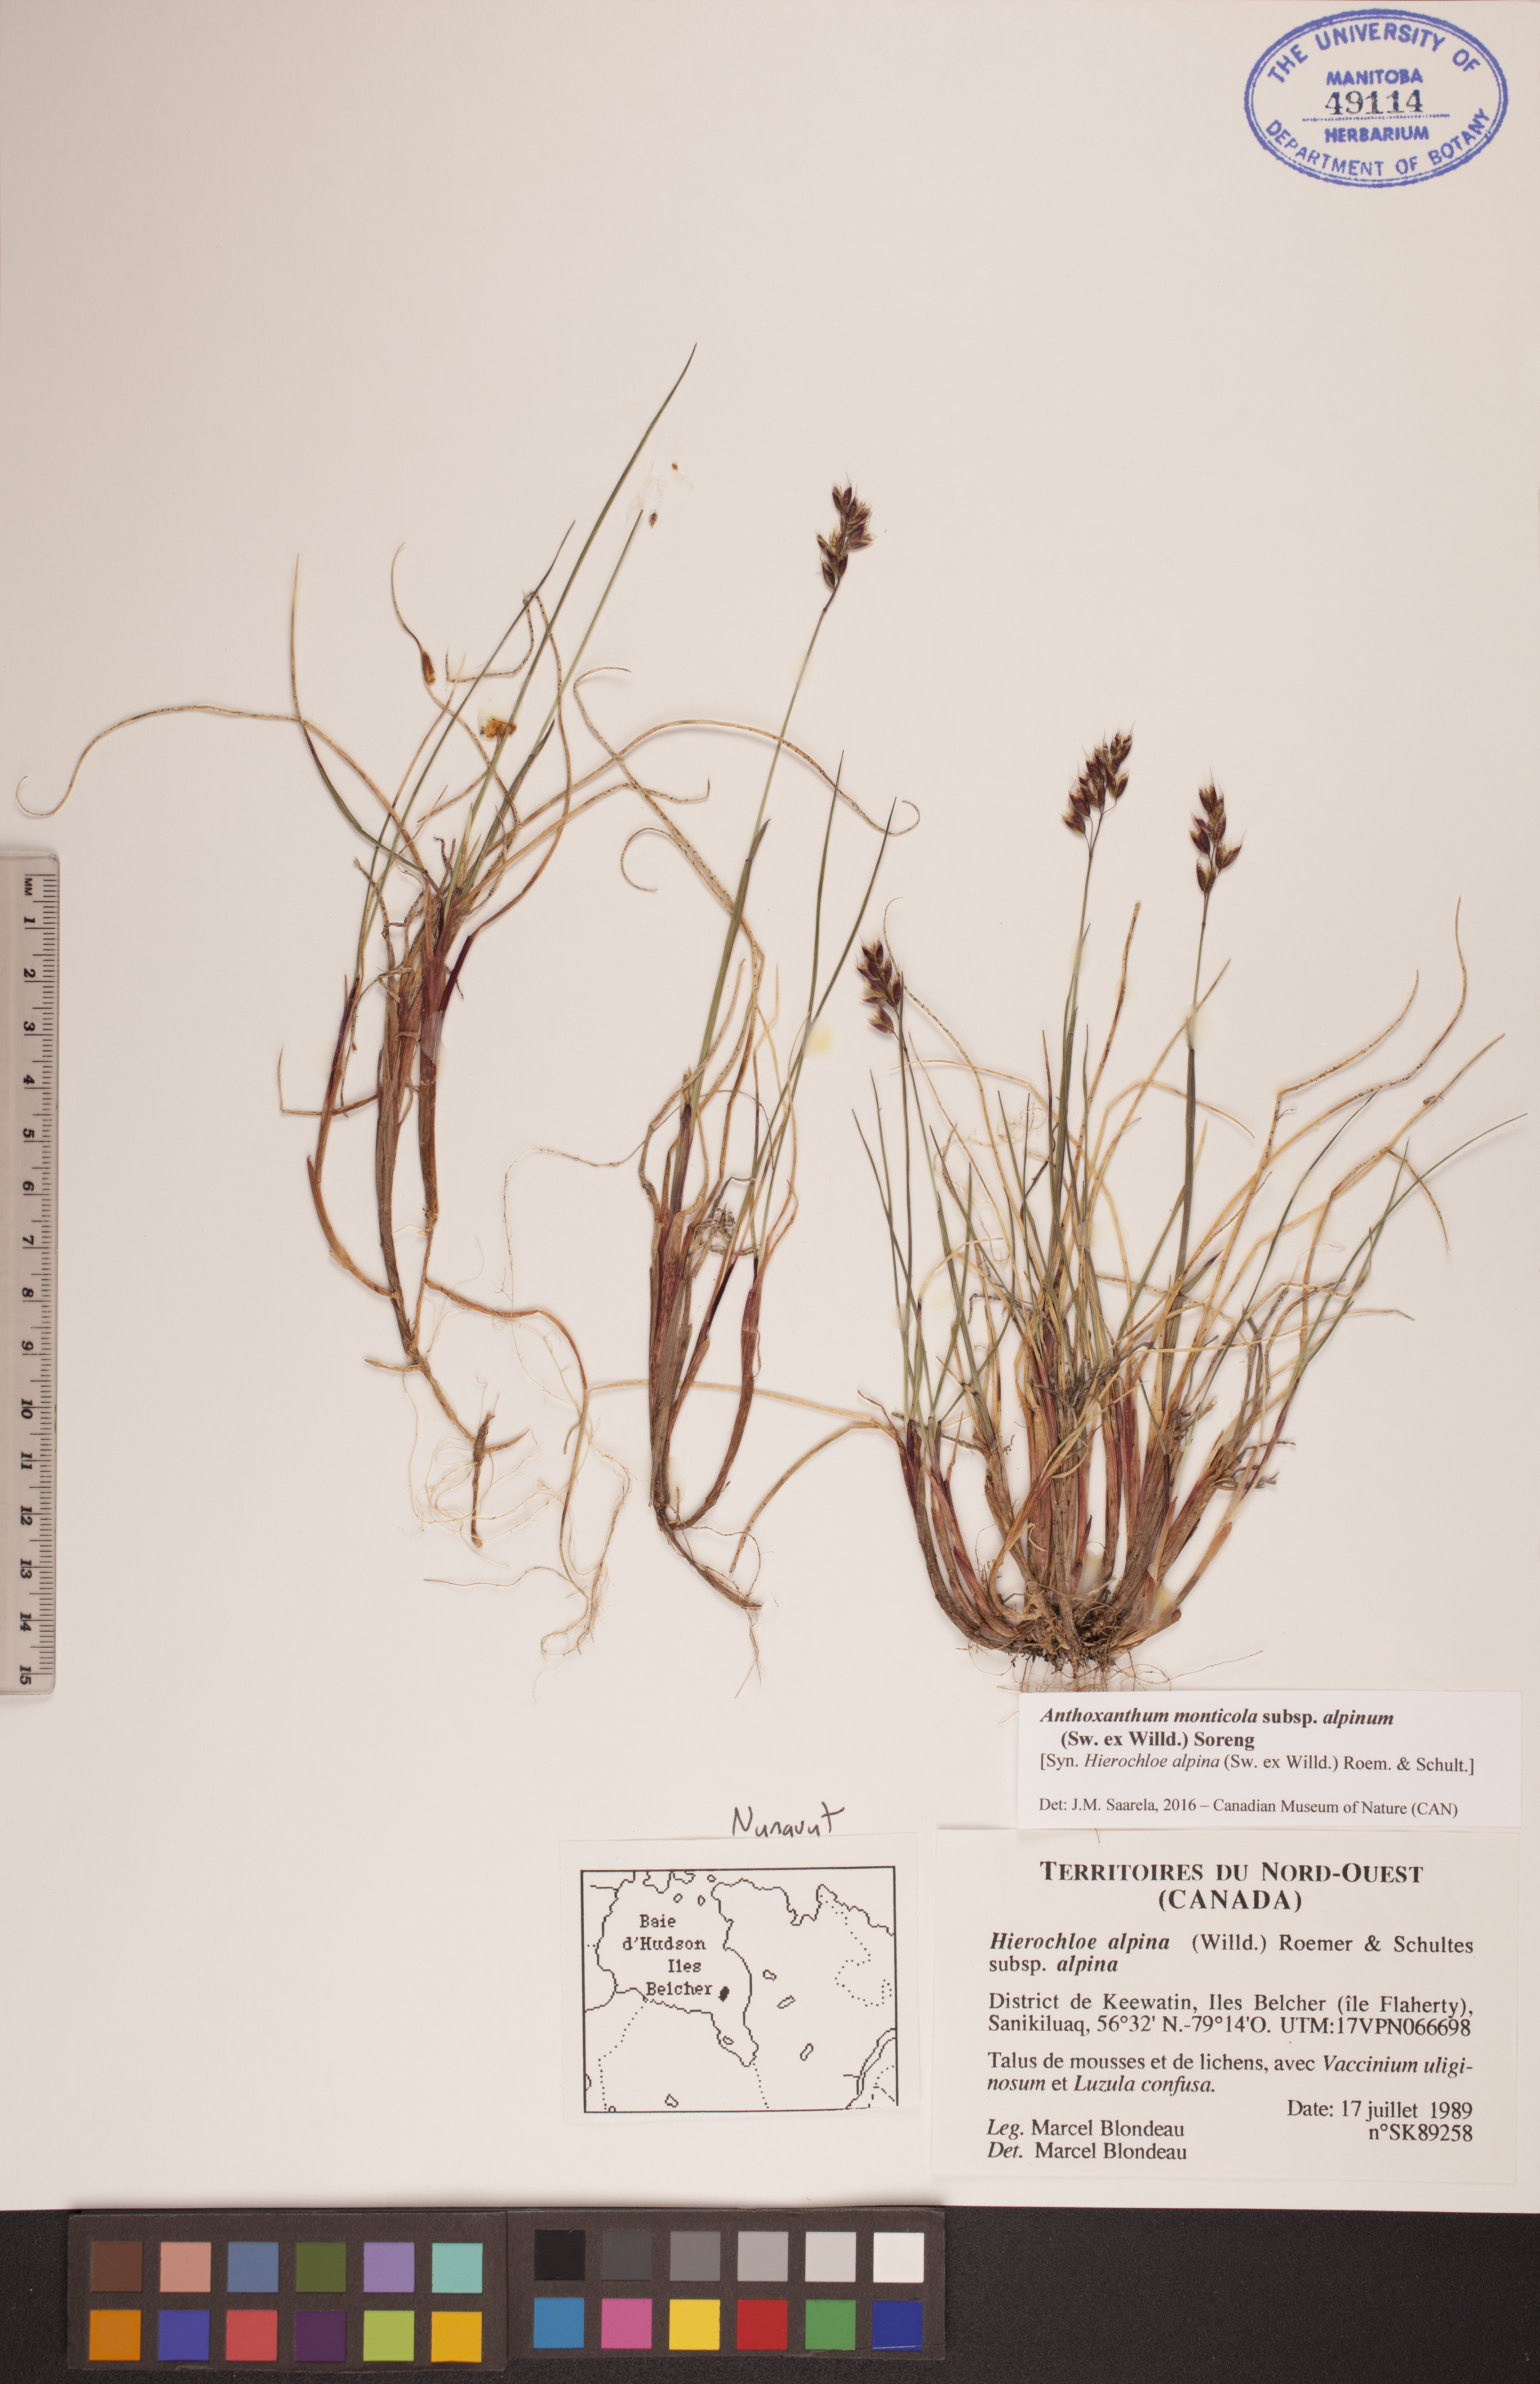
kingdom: Plantae
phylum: Tracheophyta
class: Liliopsida
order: Poales
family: Poaceae
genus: Anthoxanthum
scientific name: Anthoxanthum monticola
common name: Alpine sweetgrass
